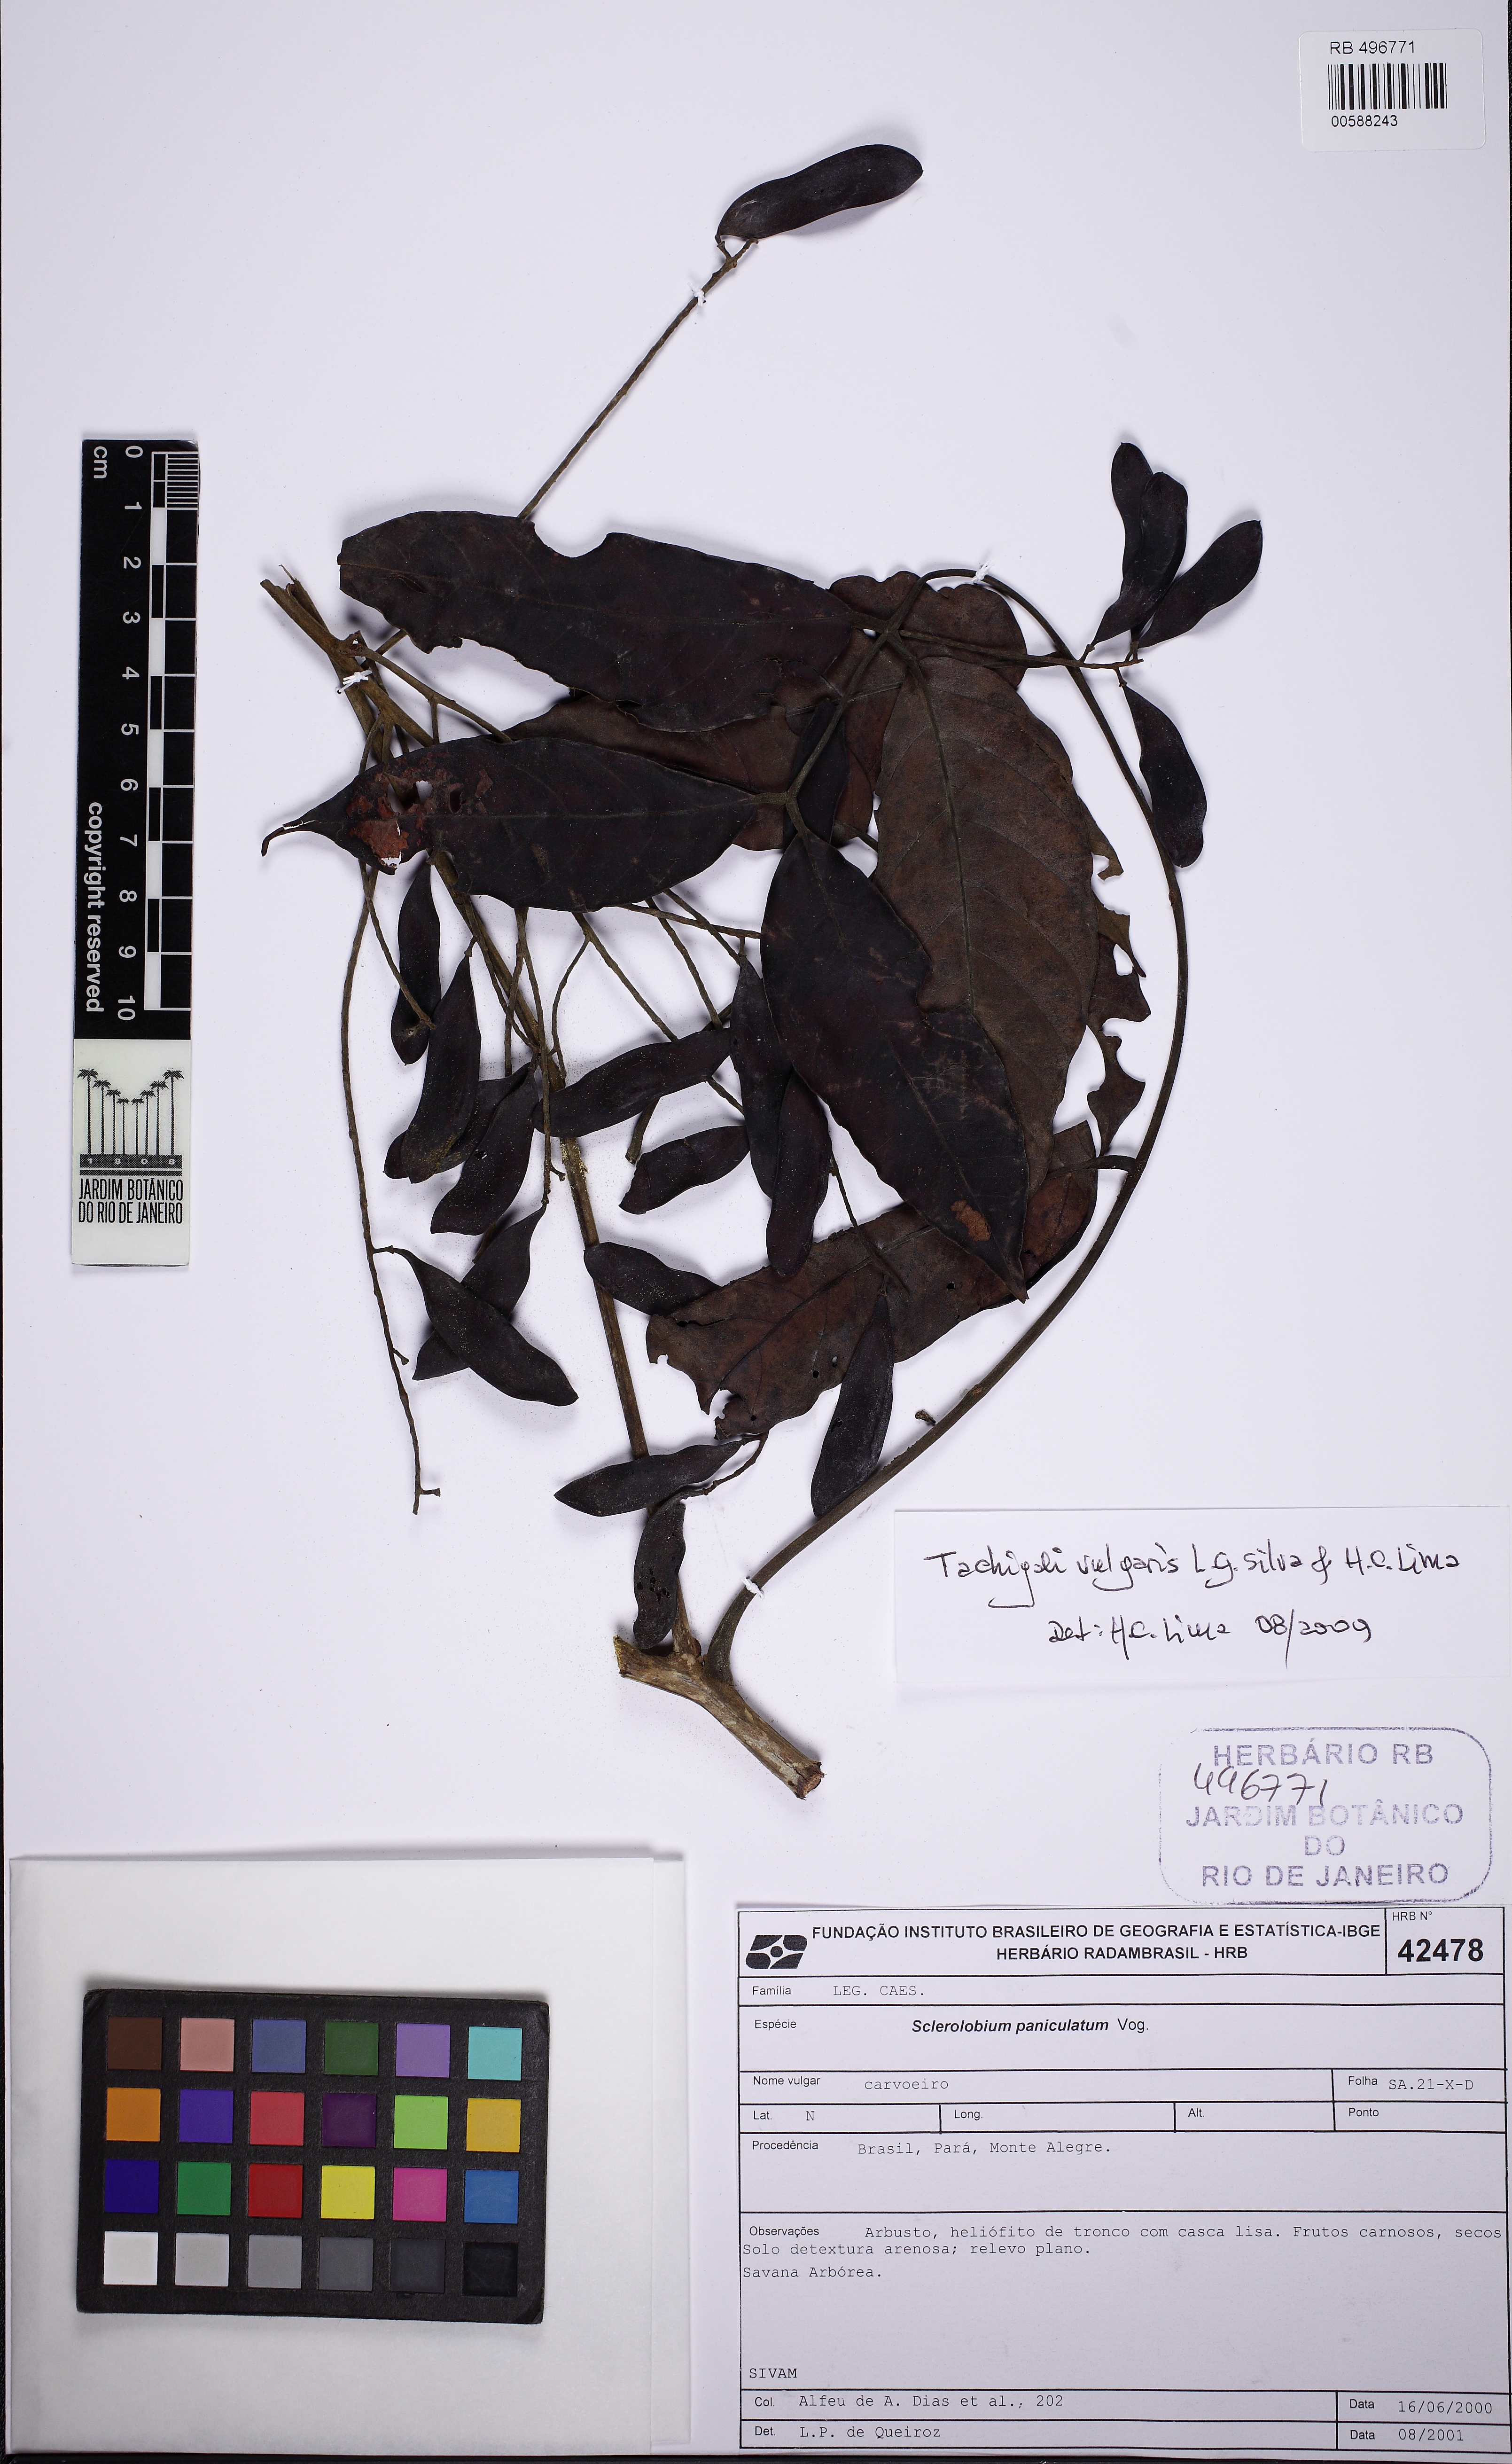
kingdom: Plantae
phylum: Tracheophyta
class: Magnoliopsida
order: Fabales
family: Fabaceae
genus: Tachigali
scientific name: Tachigali vulgaris
